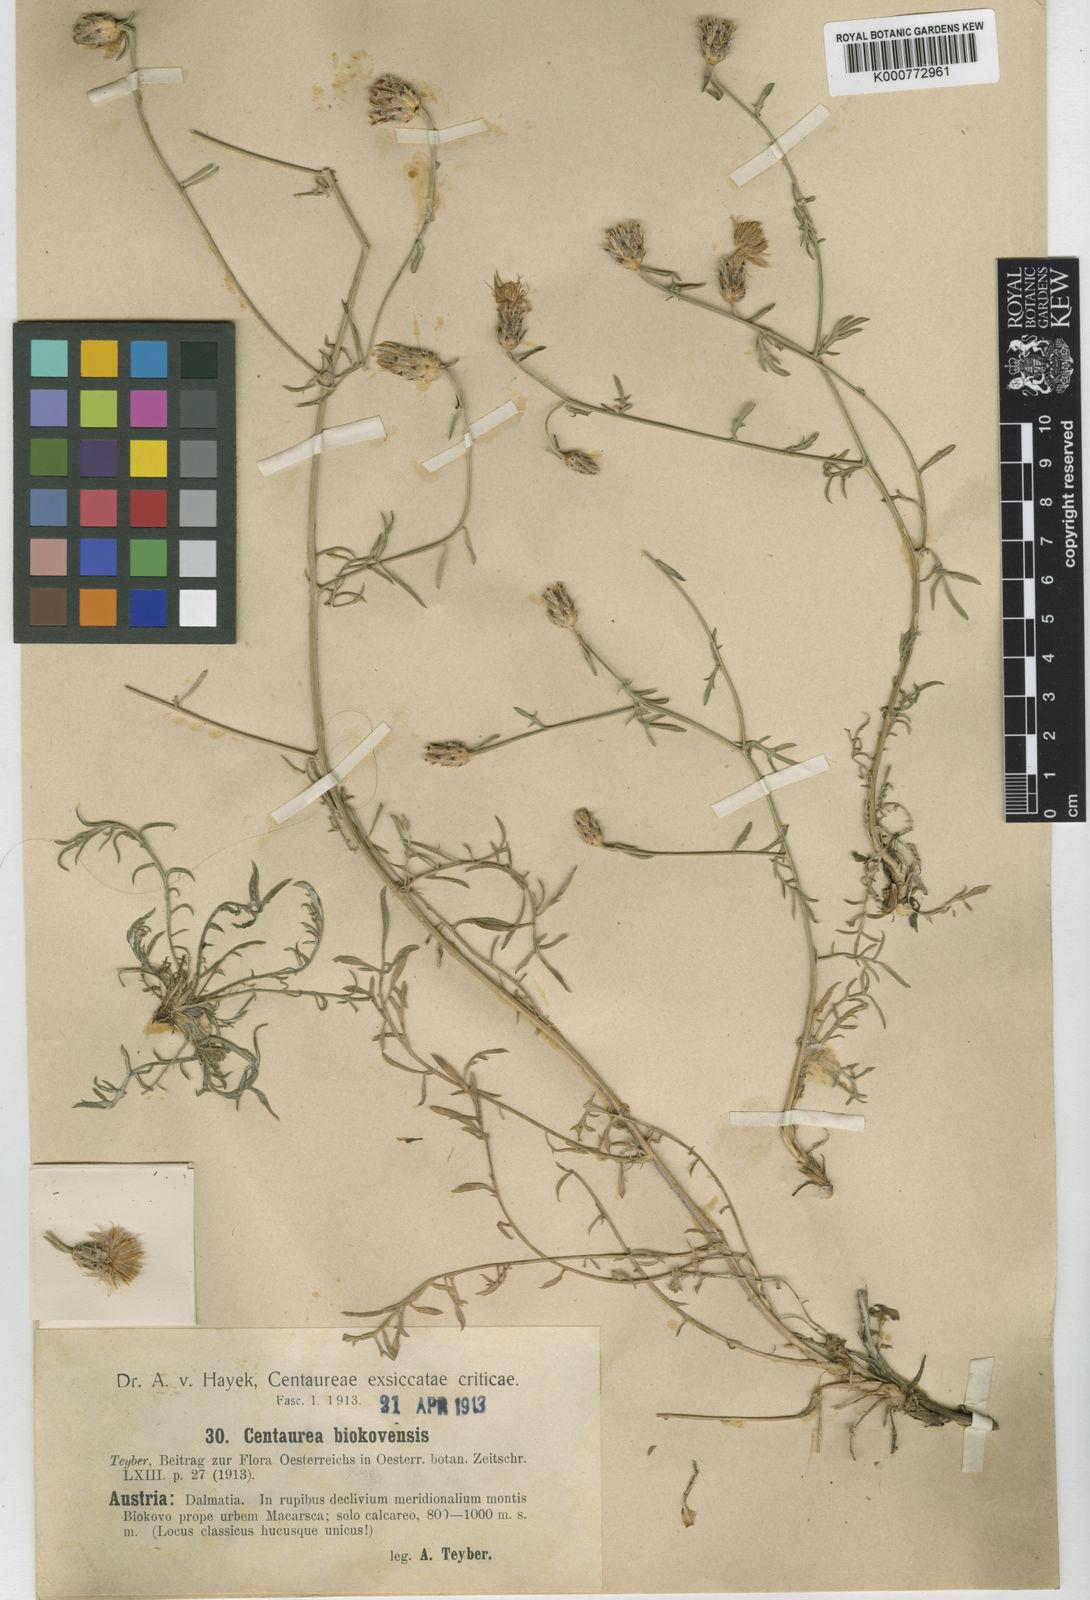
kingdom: Plantae
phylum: Tracheophyta
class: Magnoliopsida
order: Asterales
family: Asteraceae
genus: Centaurea
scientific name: Centaurea biokovensis
